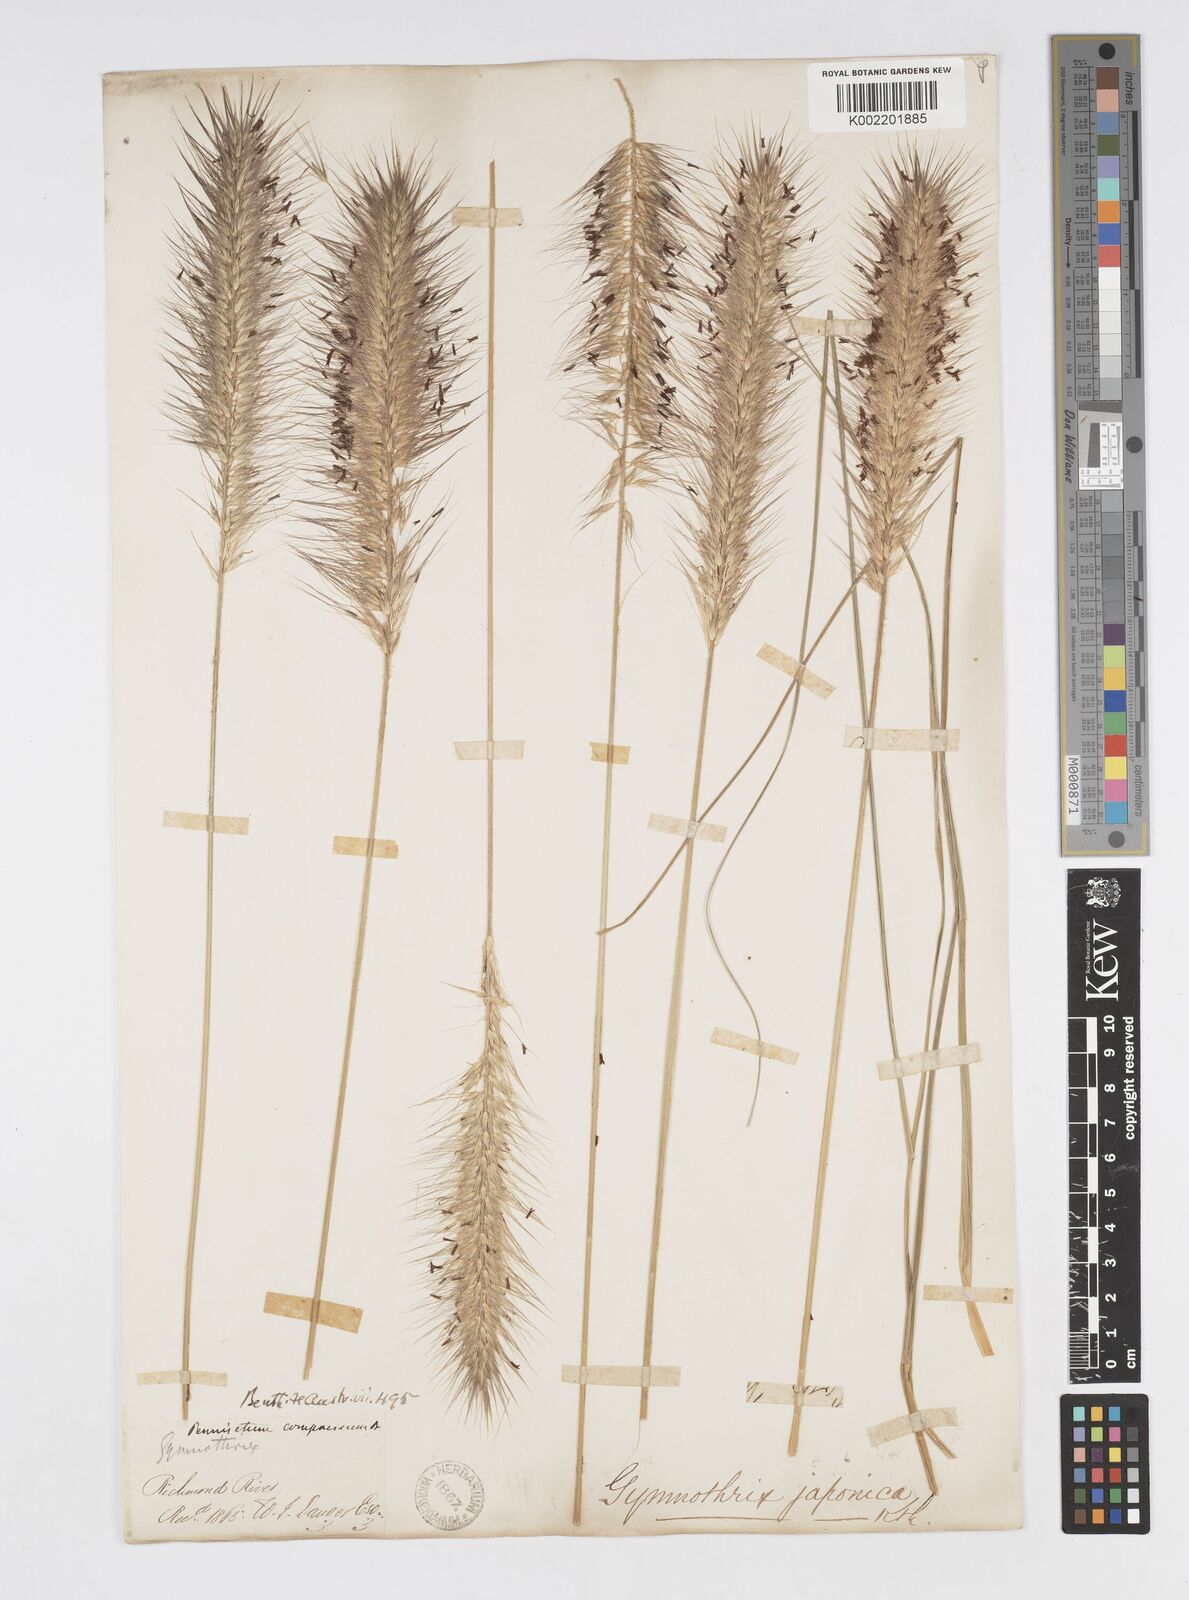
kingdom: Plantae
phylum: Tracheophyta
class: Liliopsida
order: Poales
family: Poaceae
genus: Cenchrus
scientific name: Cenchrus alopecuroides
